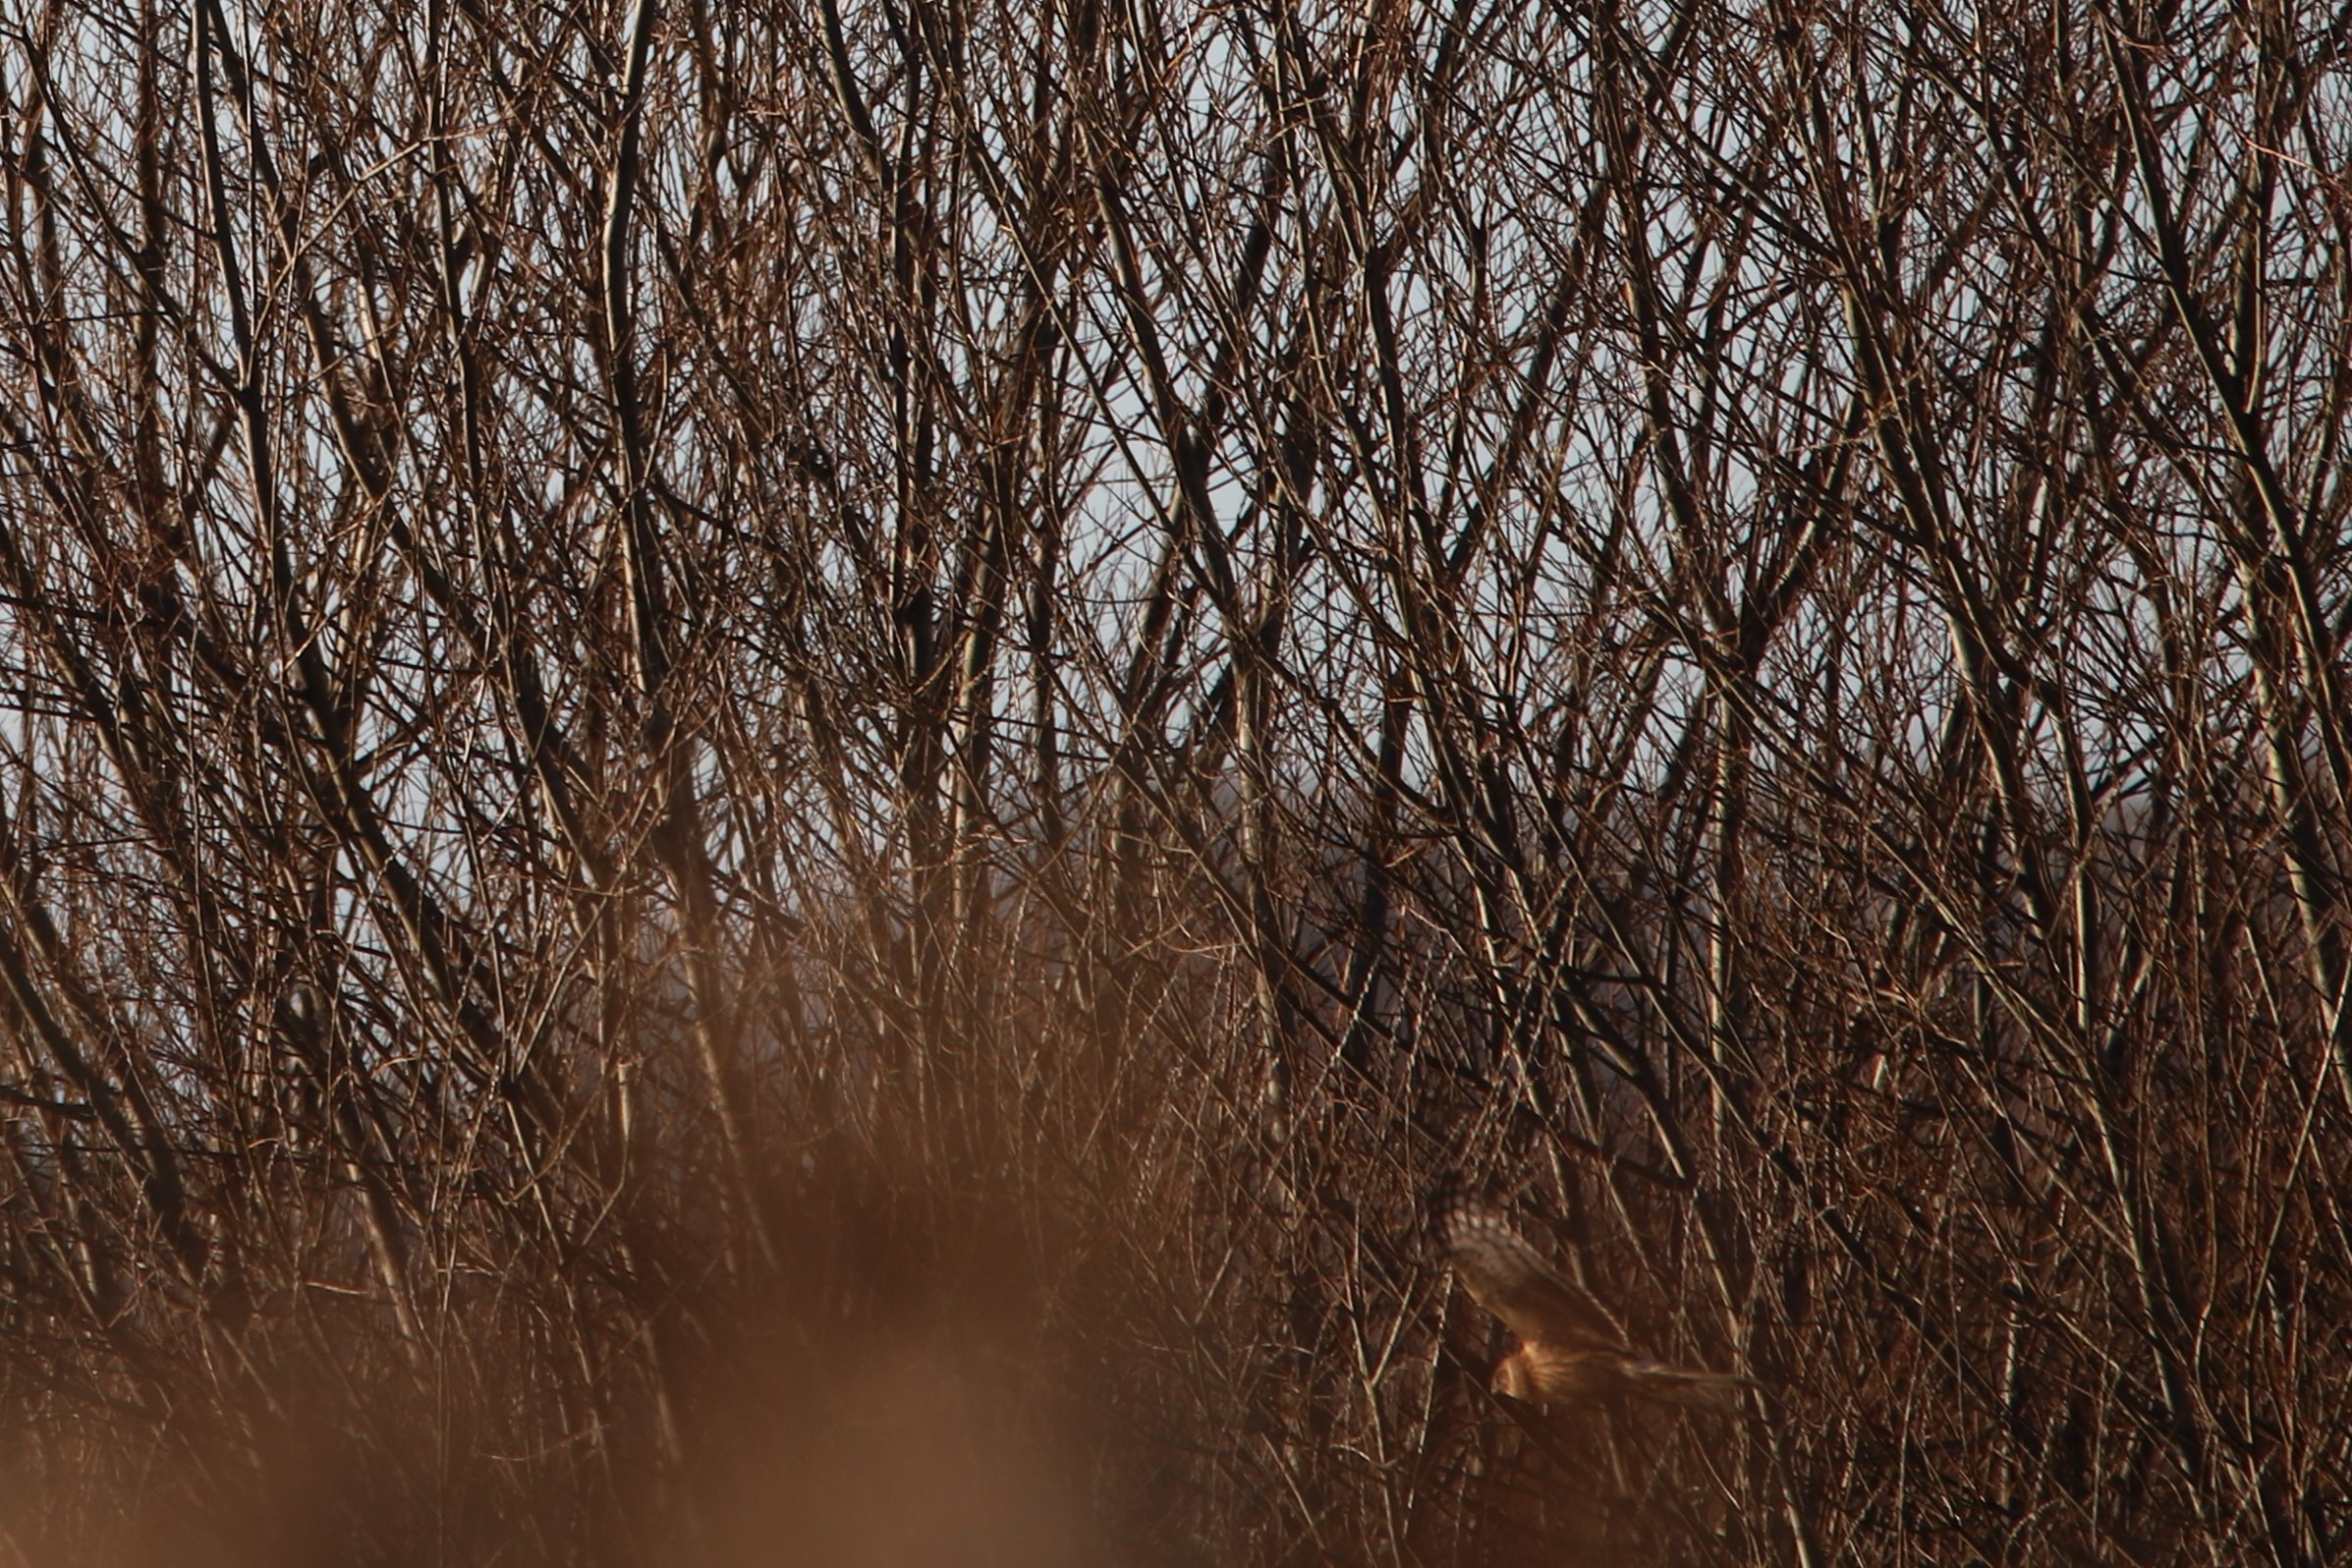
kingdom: Animalia
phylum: Chordata
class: Aves
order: Accipitriformes
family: Accipitridae
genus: Circus
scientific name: Circus cyaneus
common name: Blå kærhøg
